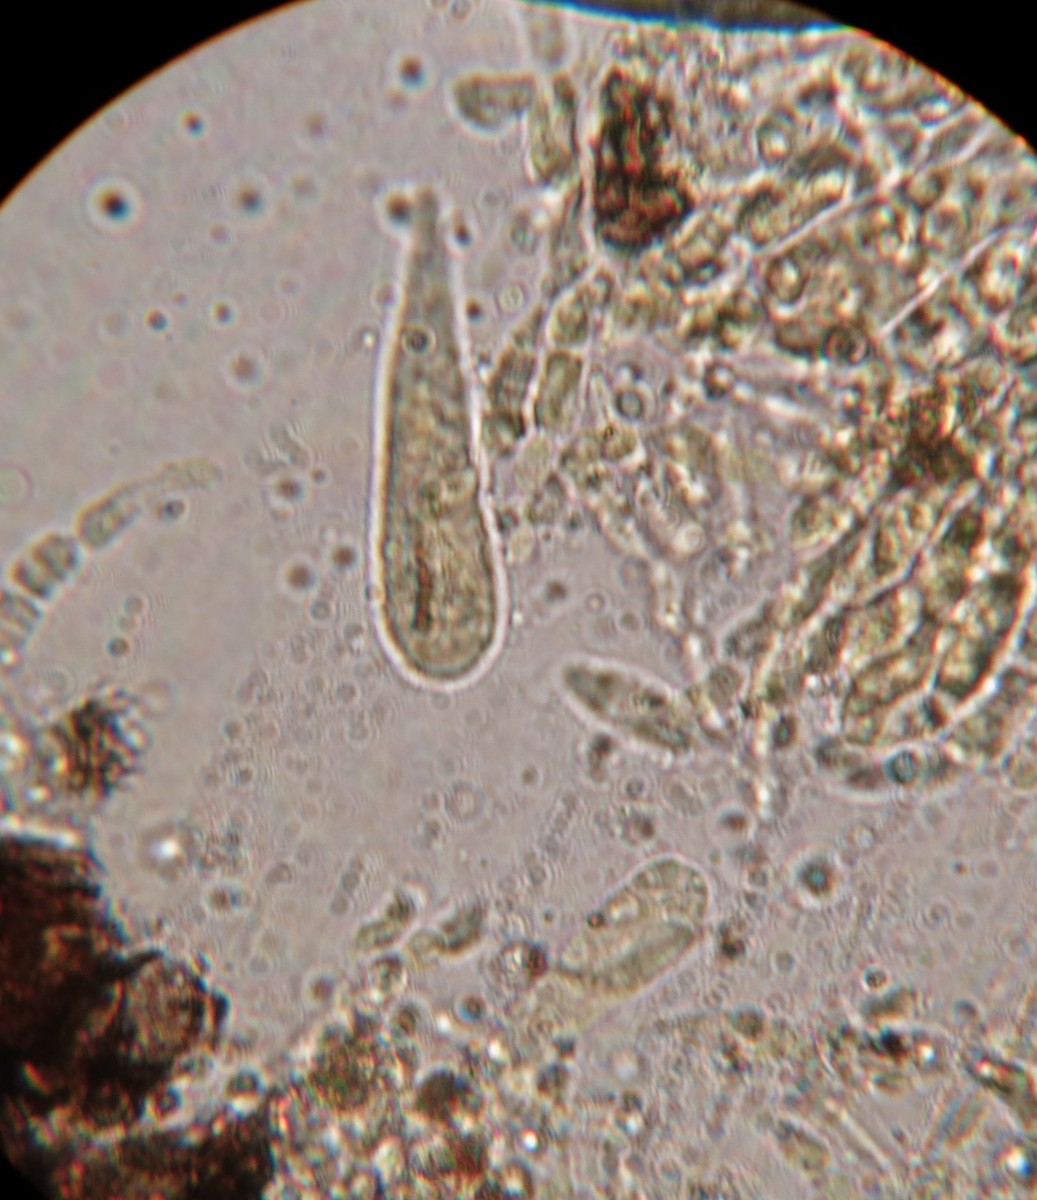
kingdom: Fungi
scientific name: Fungi
